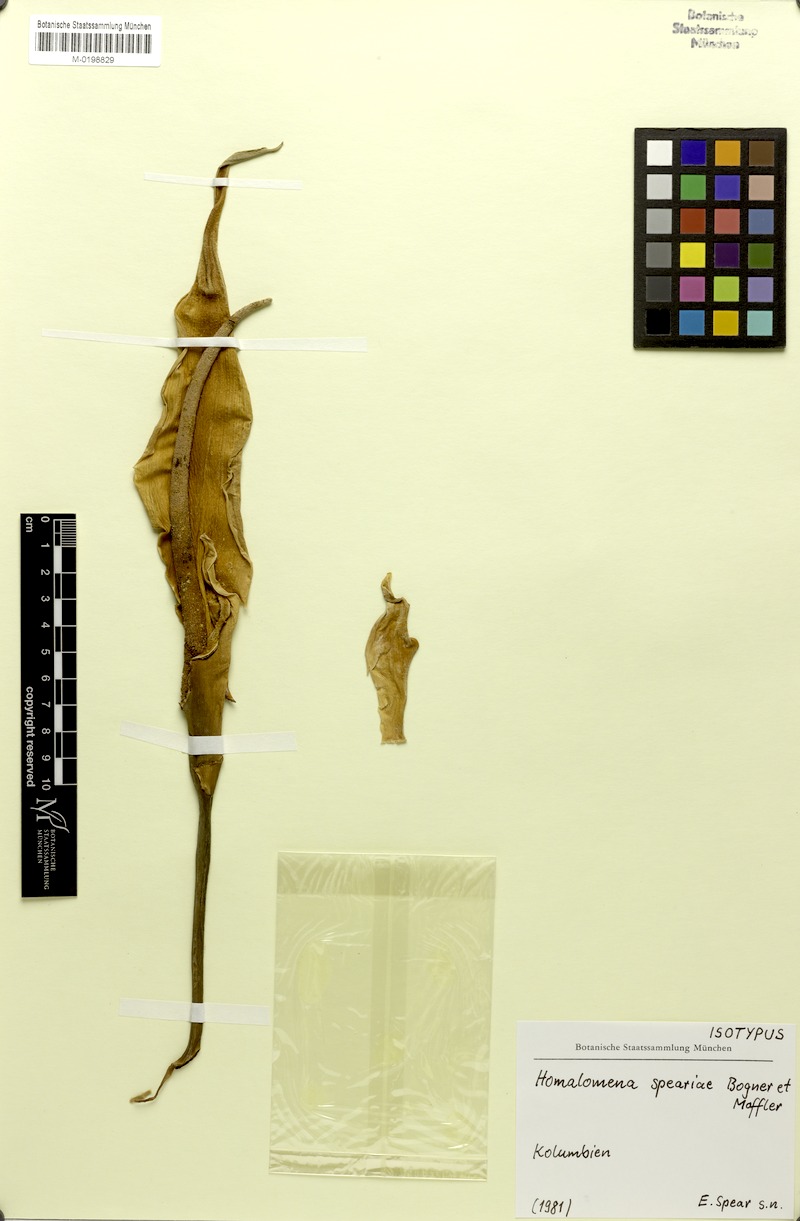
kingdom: Plantae
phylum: Tracheophyta
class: Liliopsida
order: Alismatales
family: Araceae
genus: Adelonema
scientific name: Adelonema speariae
